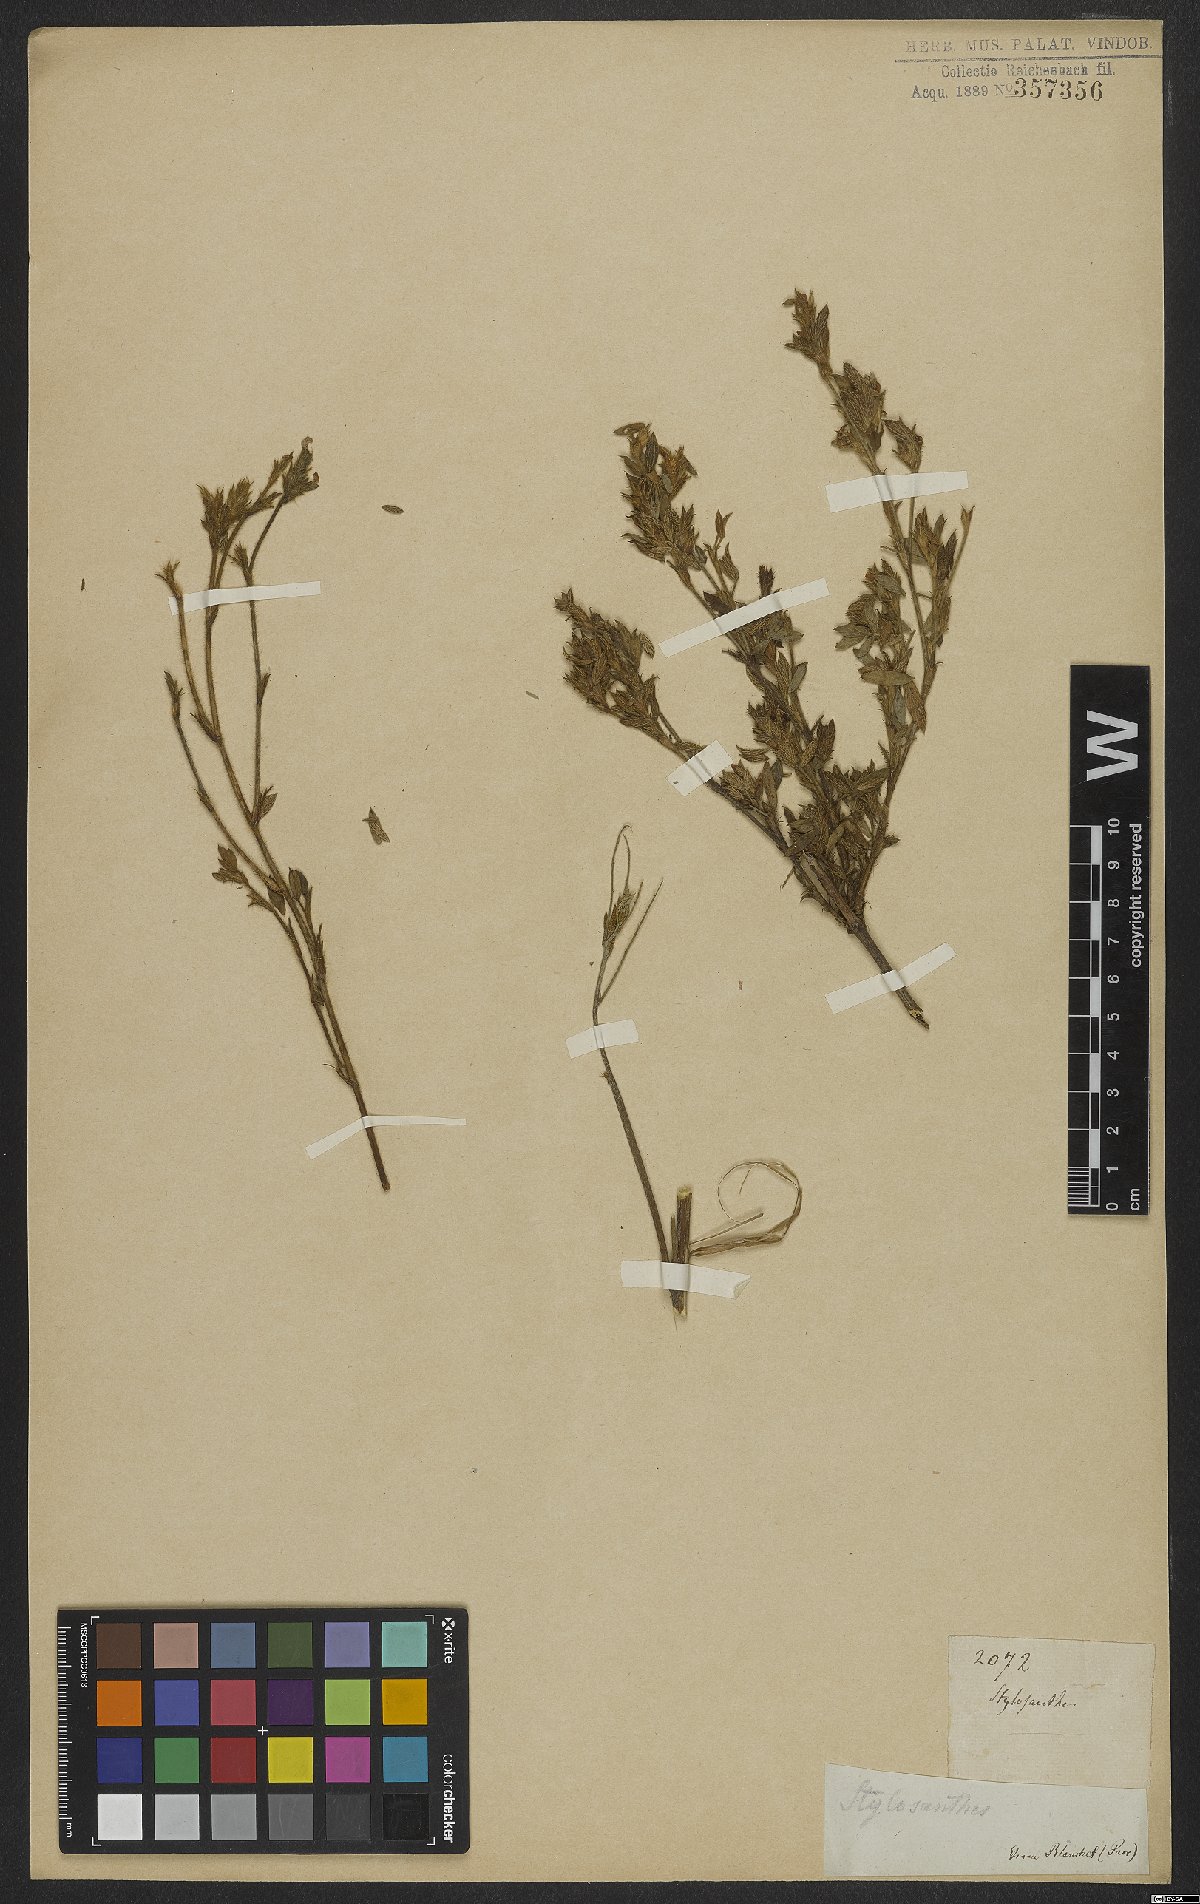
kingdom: Plantae
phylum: Tracheophyta
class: Magnoliopsida
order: Fabales
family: Fabaceae
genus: Stylosanthes
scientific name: Stylosanthes
